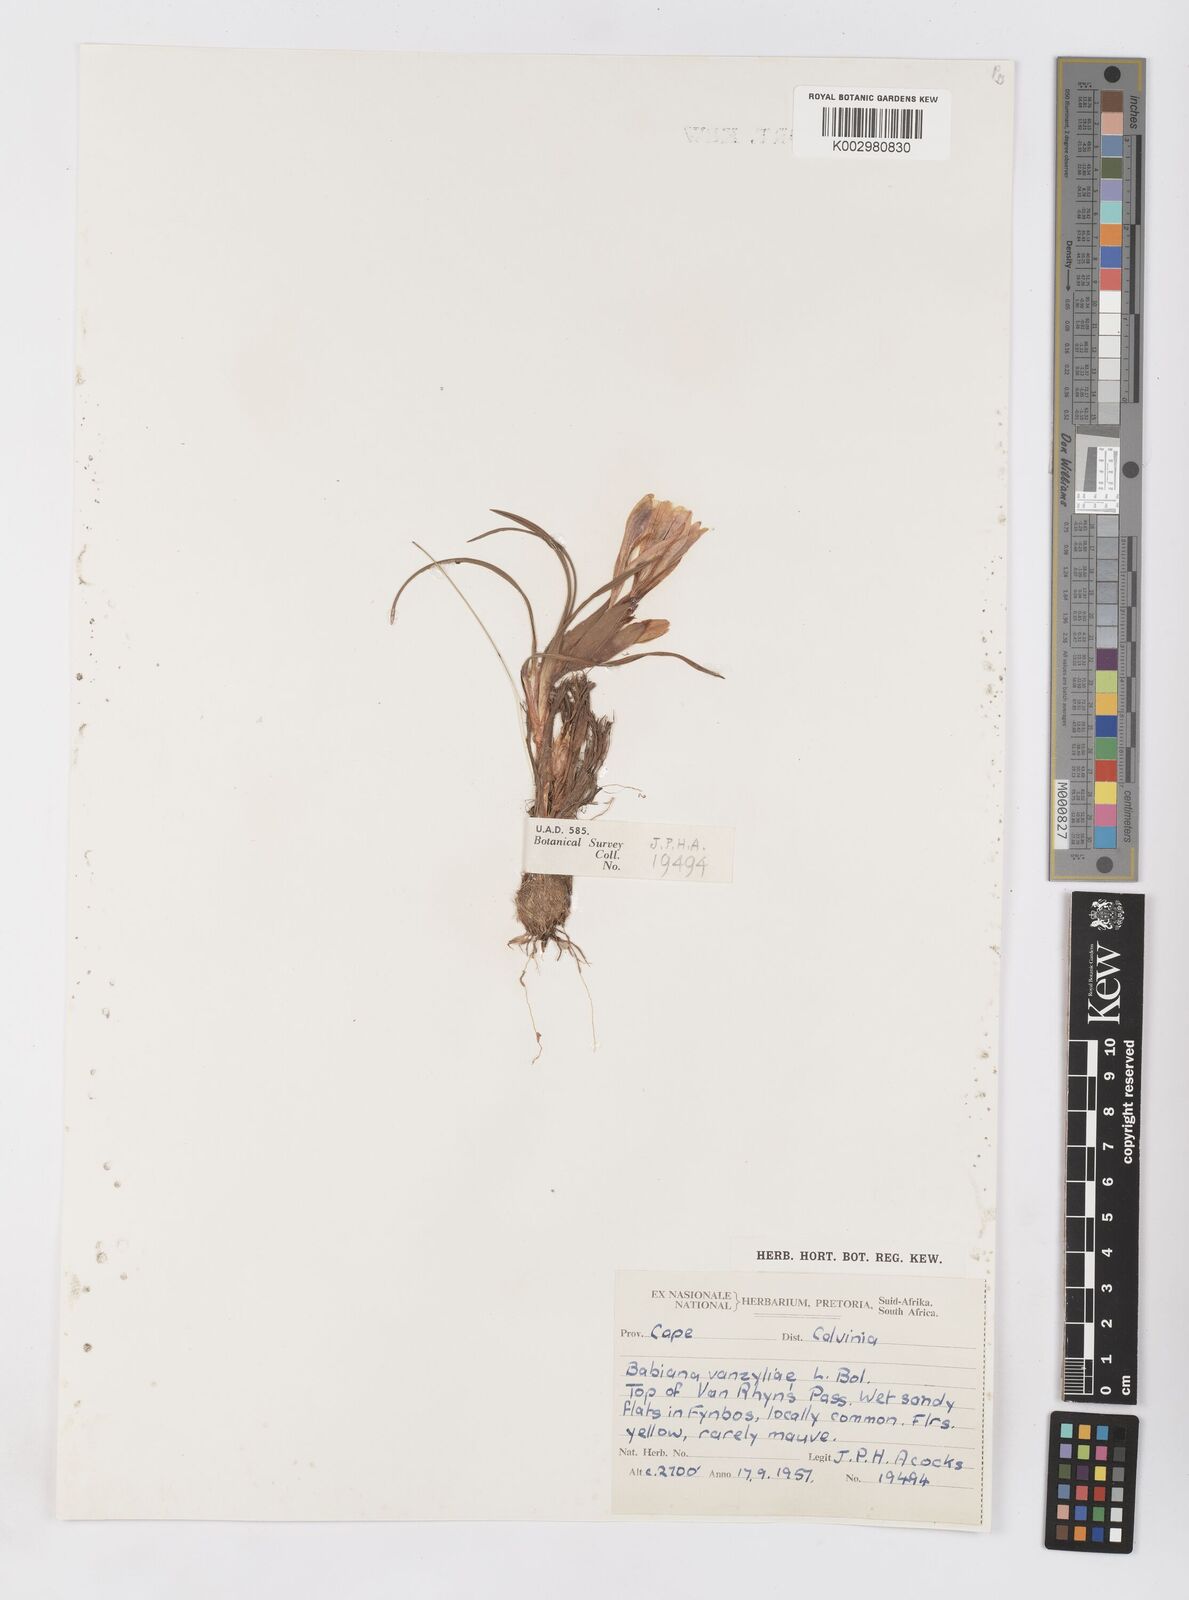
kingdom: Plantae
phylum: Tracheophyta
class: Liliopsida
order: Asparagales
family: Iridaceae
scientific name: Iridaceae
